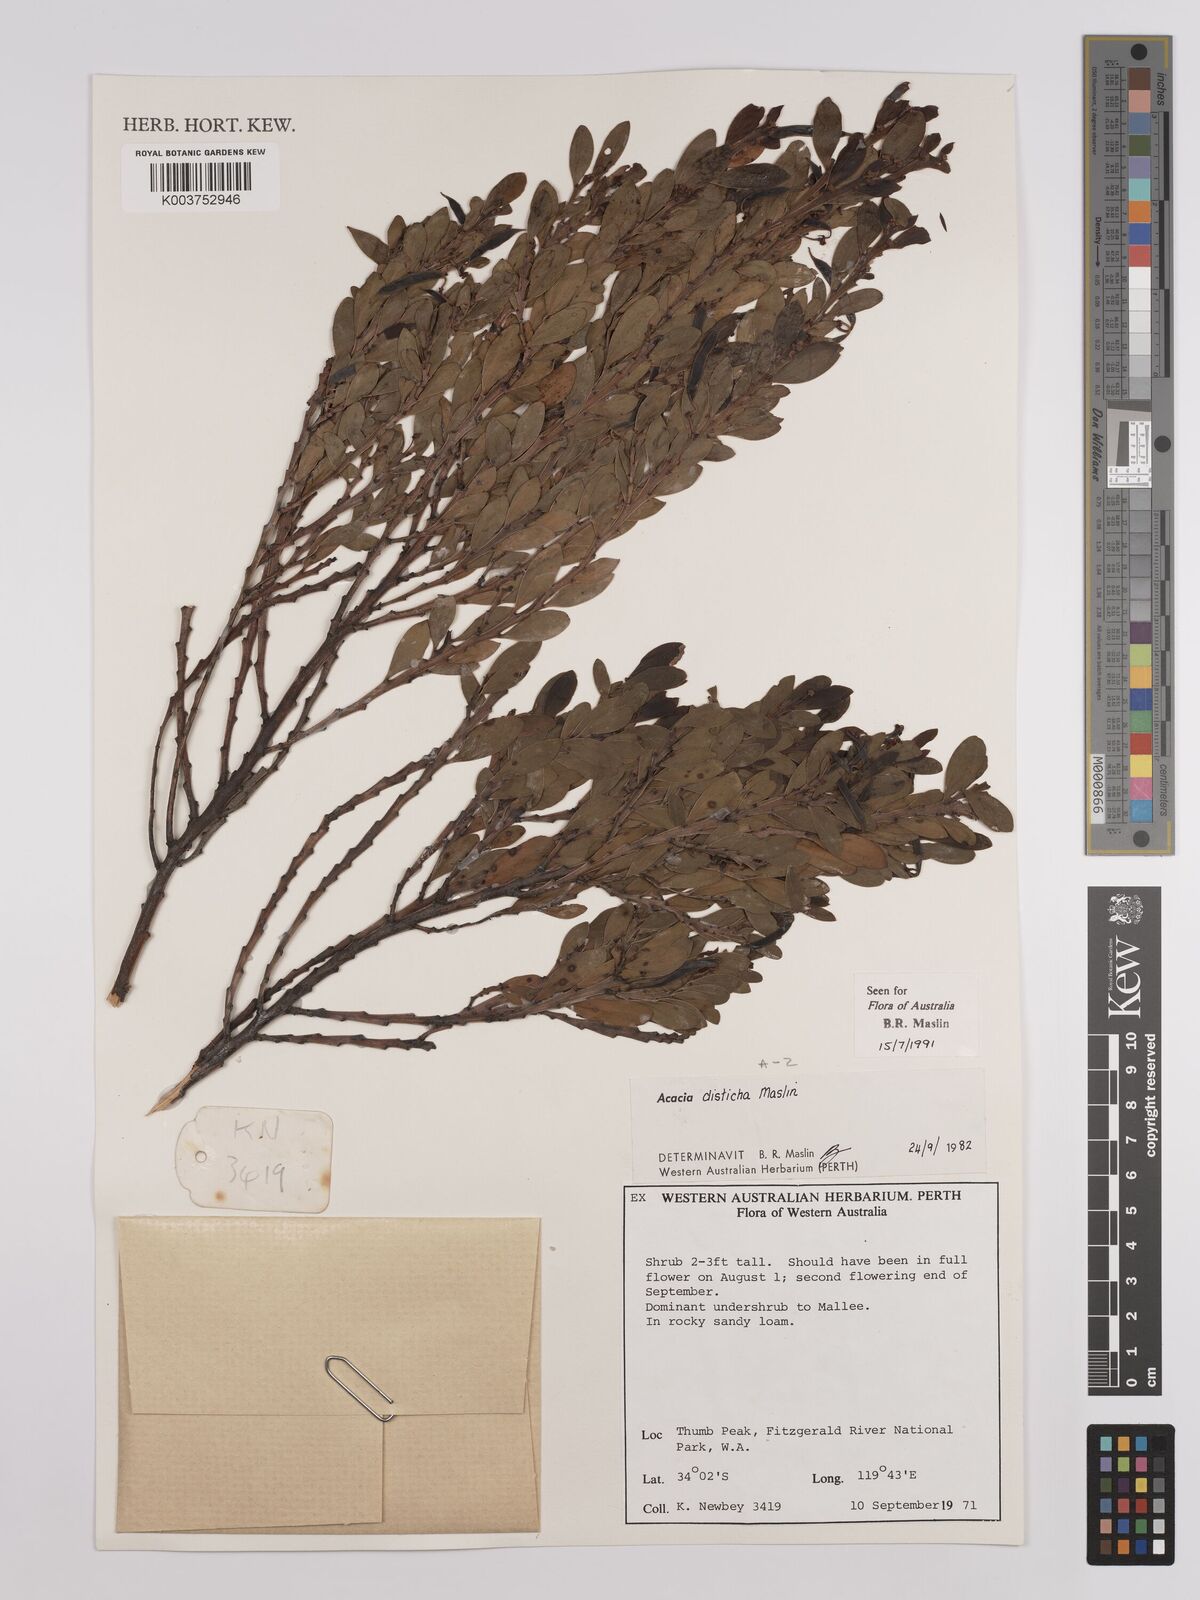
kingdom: Plantae
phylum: Tracheophyta
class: Magnoliopsida
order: Fabales
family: Fabaceae
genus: Acacia
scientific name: Acacia disticha
